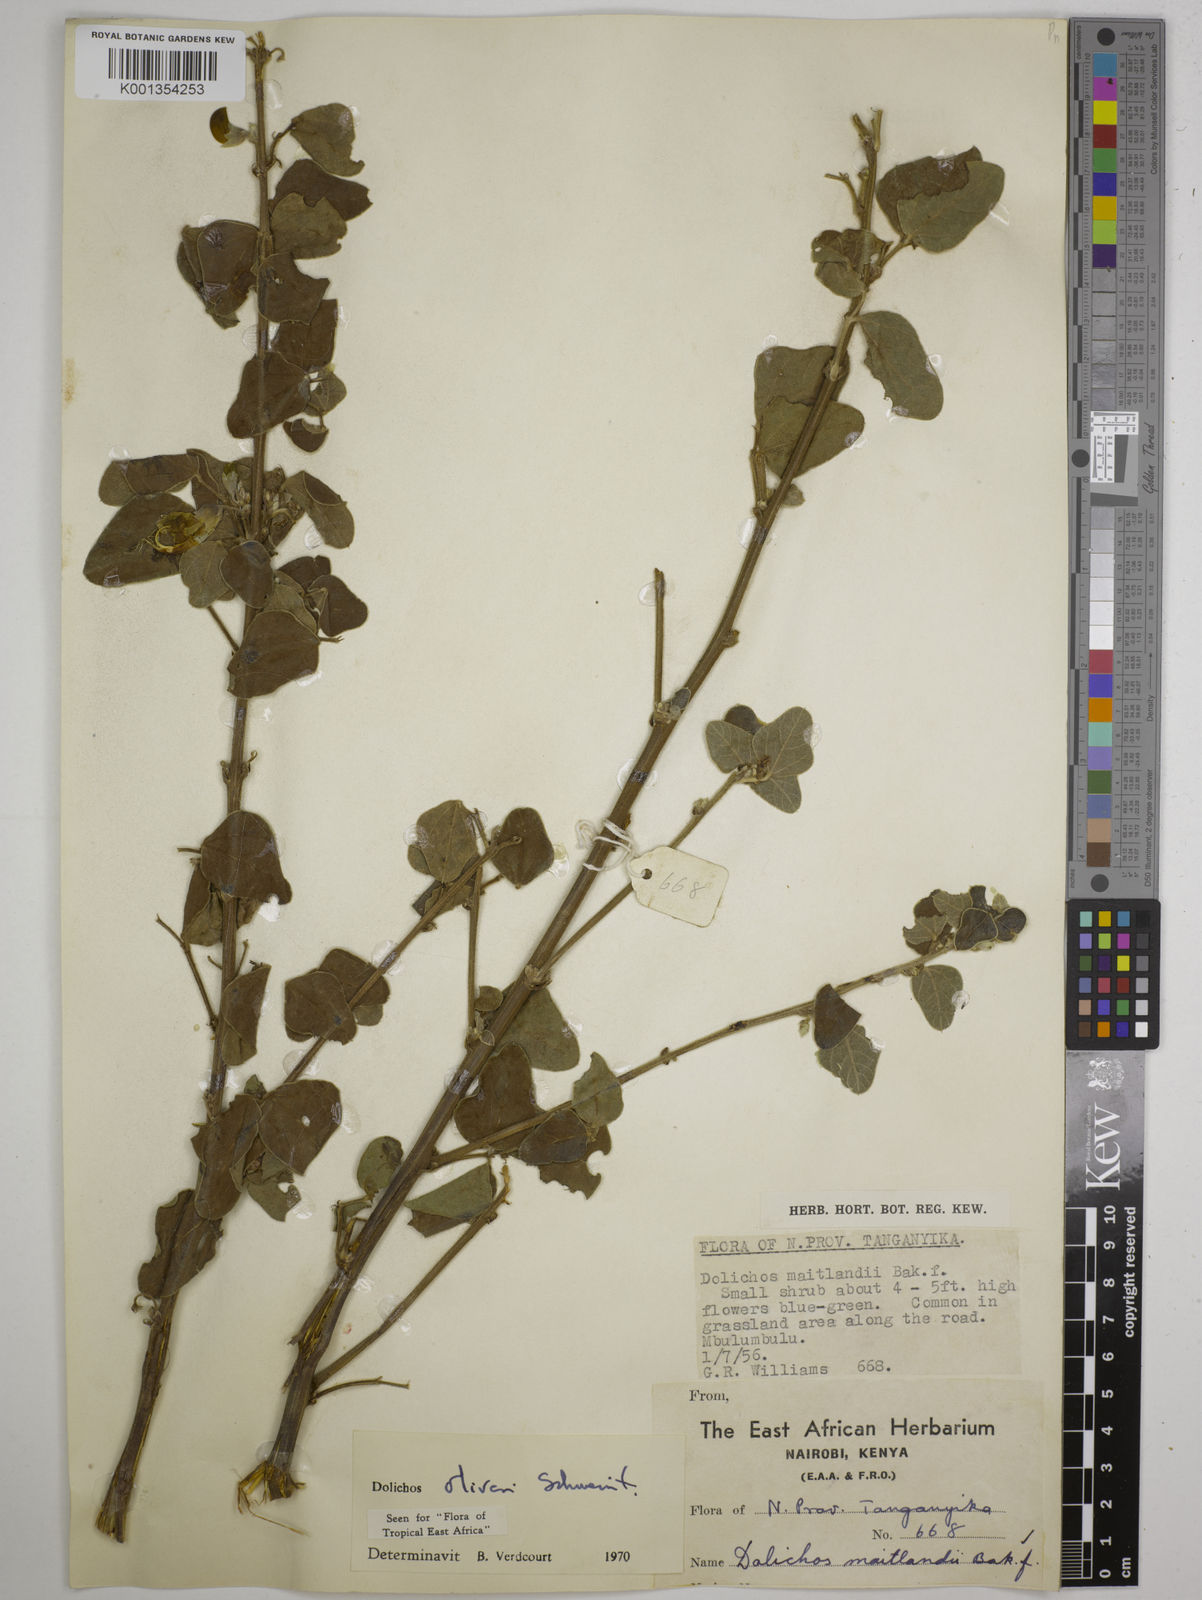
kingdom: Plantae
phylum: Tracheophyta
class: Magnoliopsida
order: Fabales
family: Fabaceae
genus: Dolichos
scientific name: Dolichos oliveri
